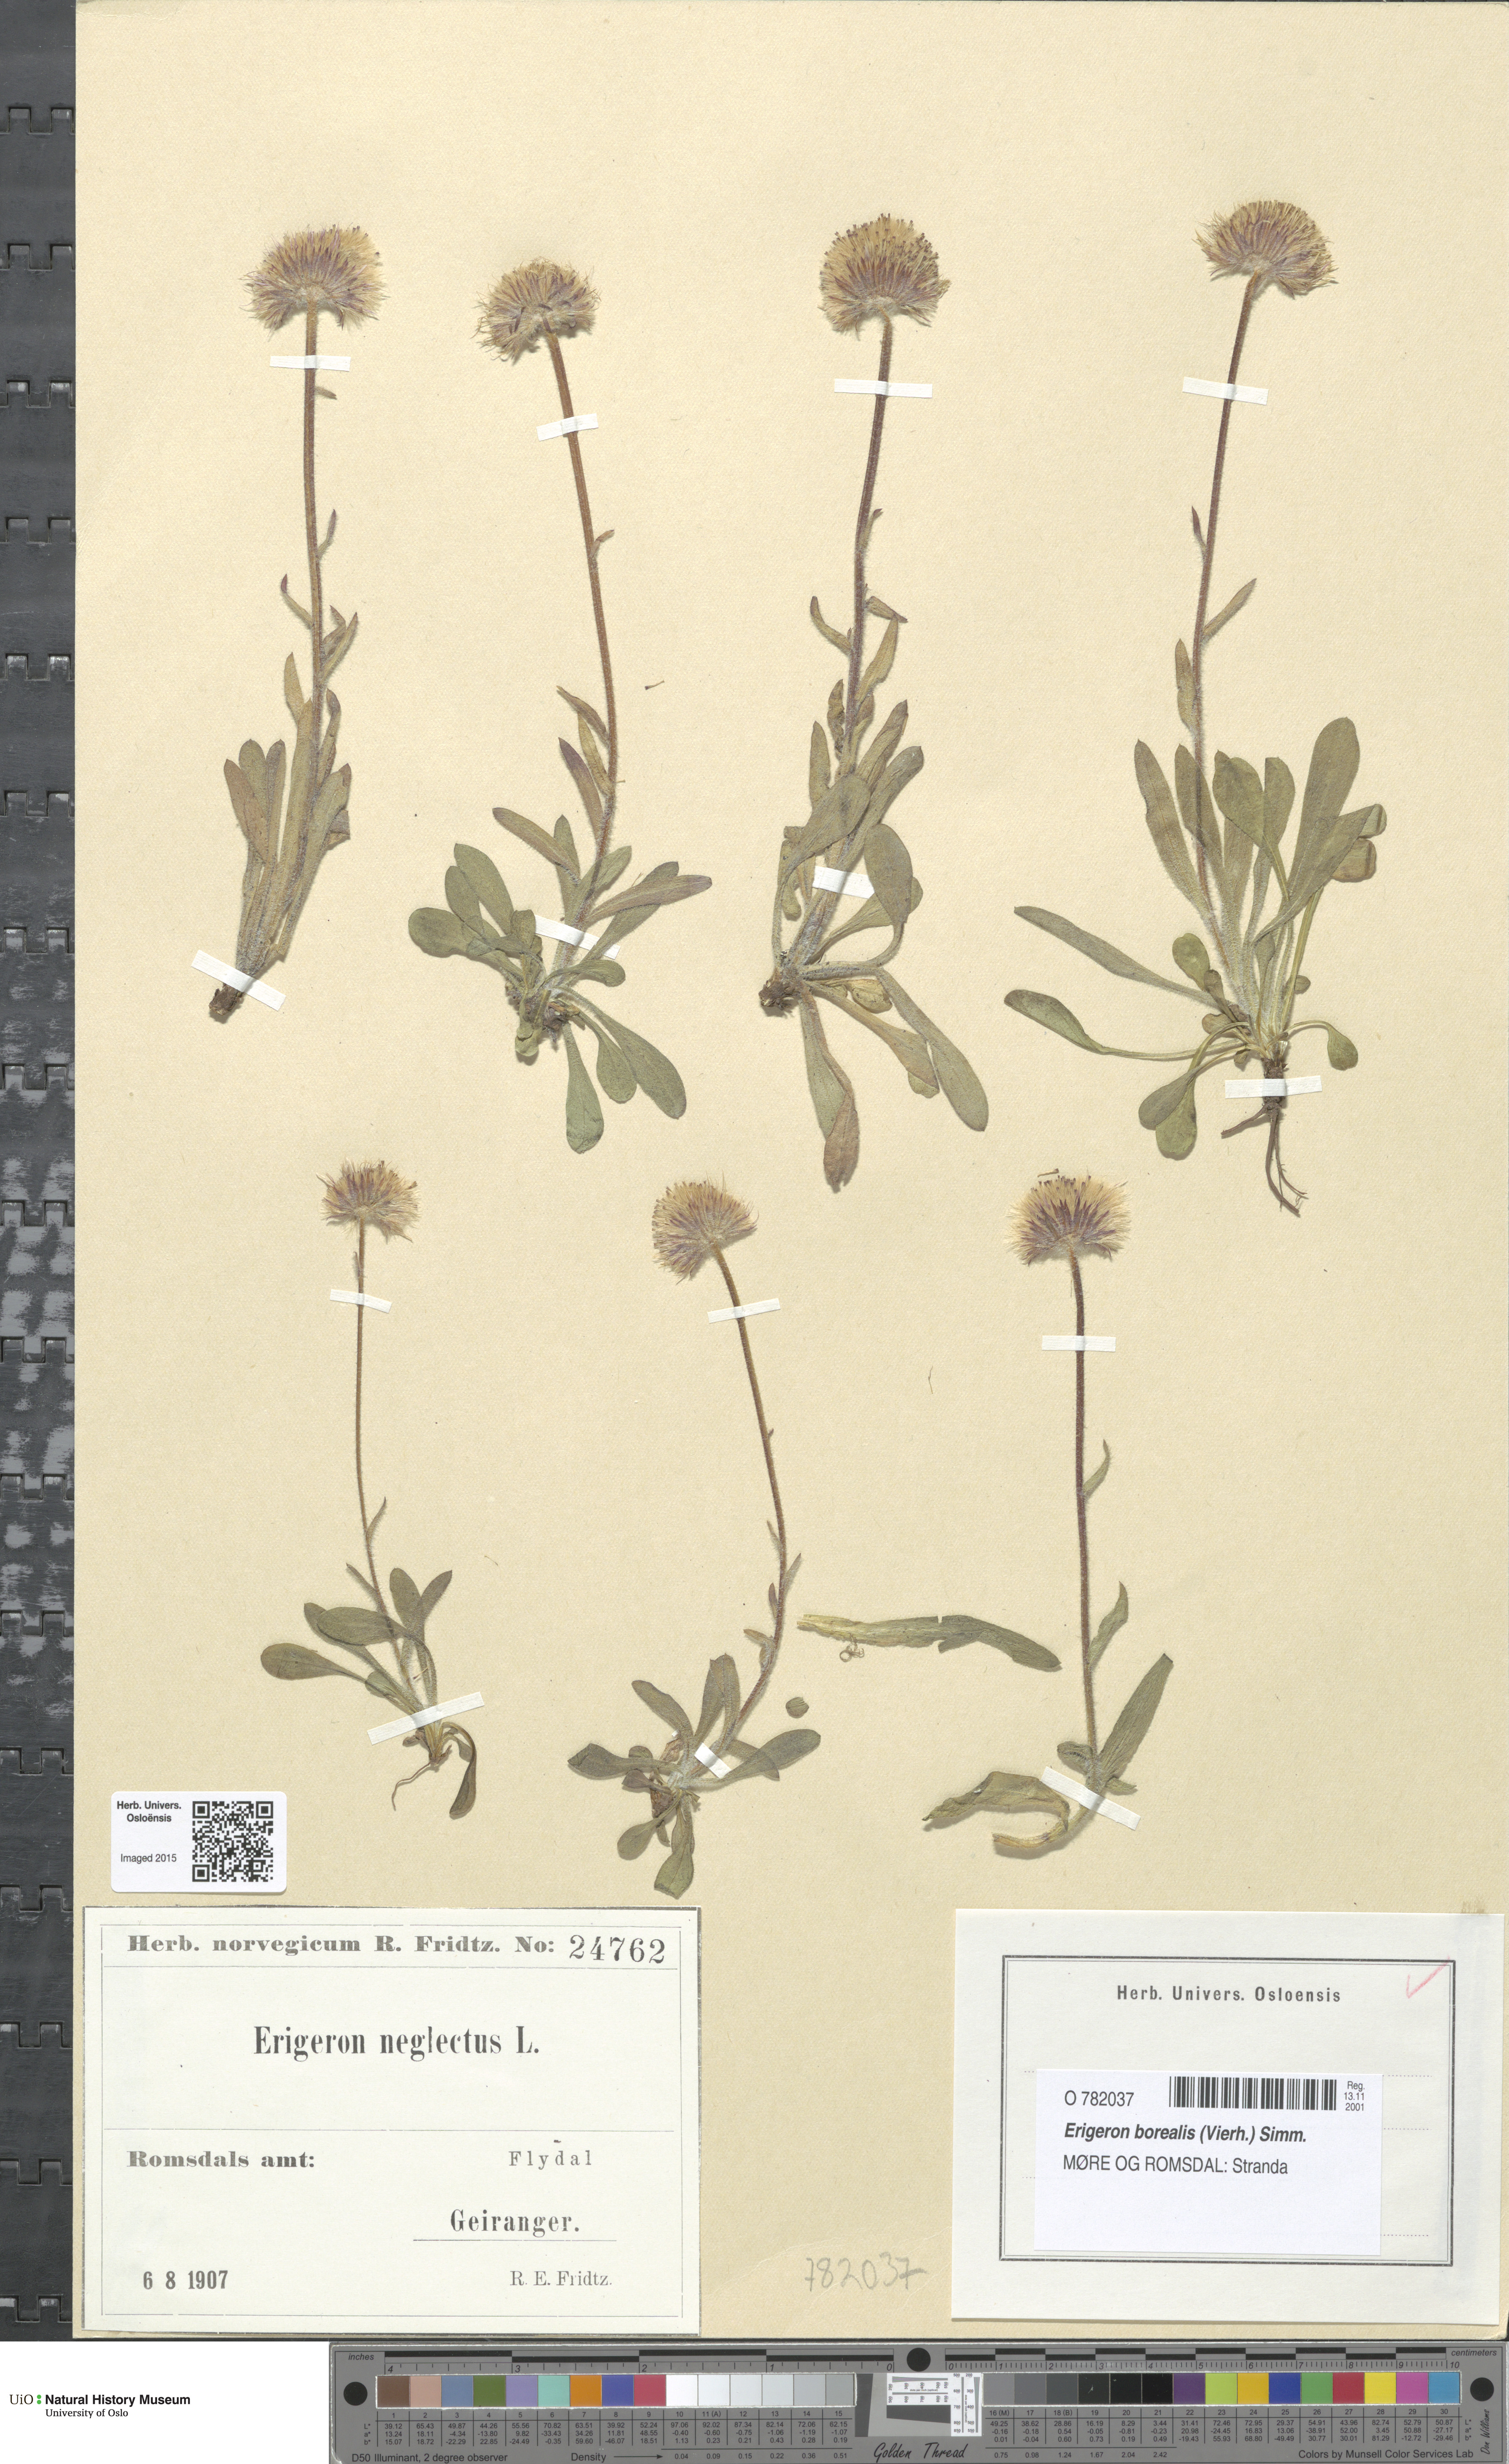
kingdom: Plantae
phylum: Tracheophyta
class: Magnoliopsida
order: Asterales
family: Asteraceae
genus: Erigeron
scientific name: Erigeron borealis
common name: Alpine fleabane
